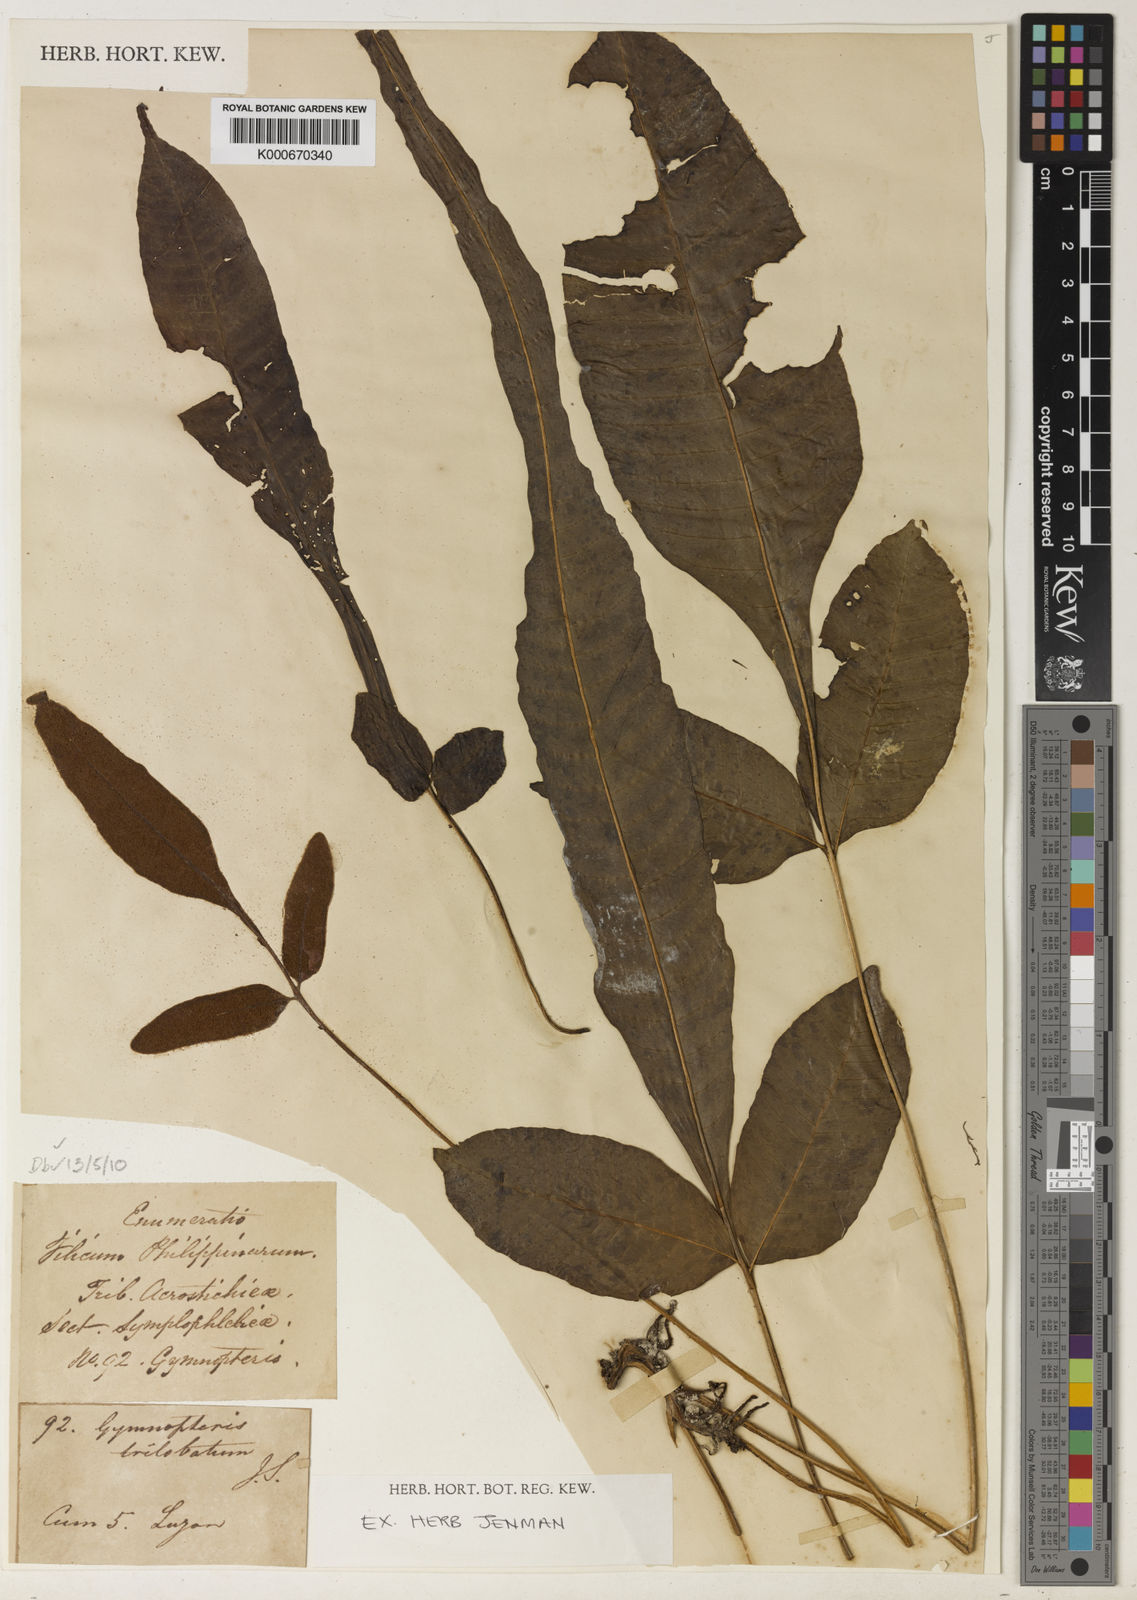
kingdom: Plantae
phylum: Tracheophyta
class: Polypodiopsida
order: Polypodiales
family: Dryopteridaceae
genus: Bolbitis
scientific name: Bolbitis heteroclita
